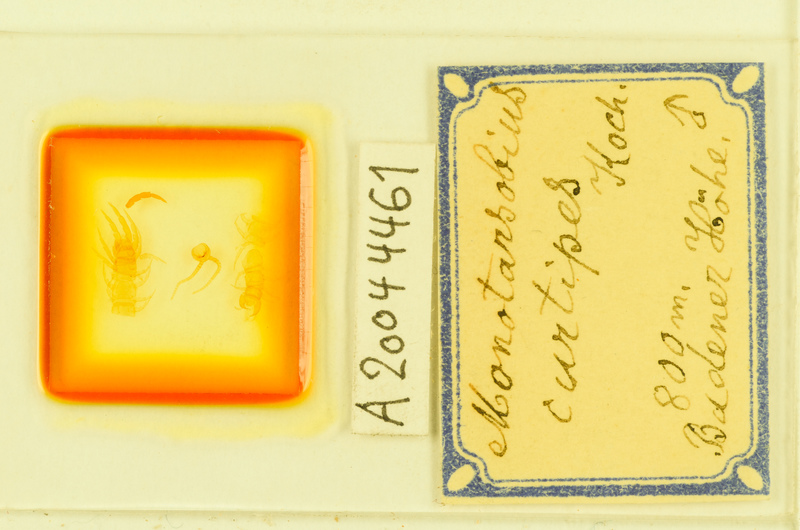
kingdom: Animalia
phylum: Arthropoda
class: Chilopoda
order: Lithobiomorpha
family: Lithobiidae
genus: Lithobius
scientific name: Lithobius curtipes
